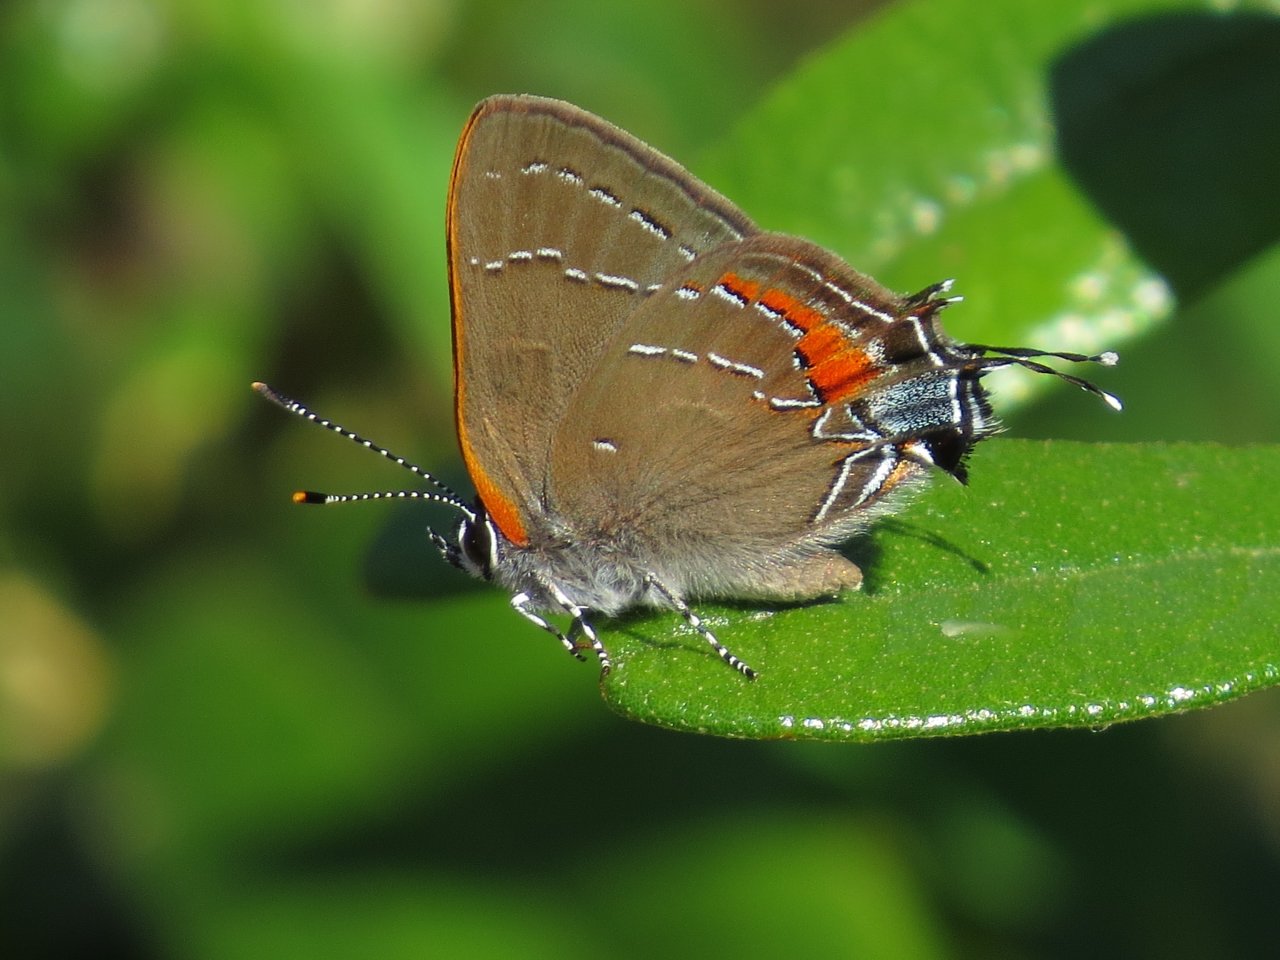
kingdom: Animalia
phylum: Arthropoda
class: Insecta
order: Lepidoptera
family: Lycaenidae
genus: Fixsenia
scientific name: Fixsenia favonius
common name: Oak Hairstreak
